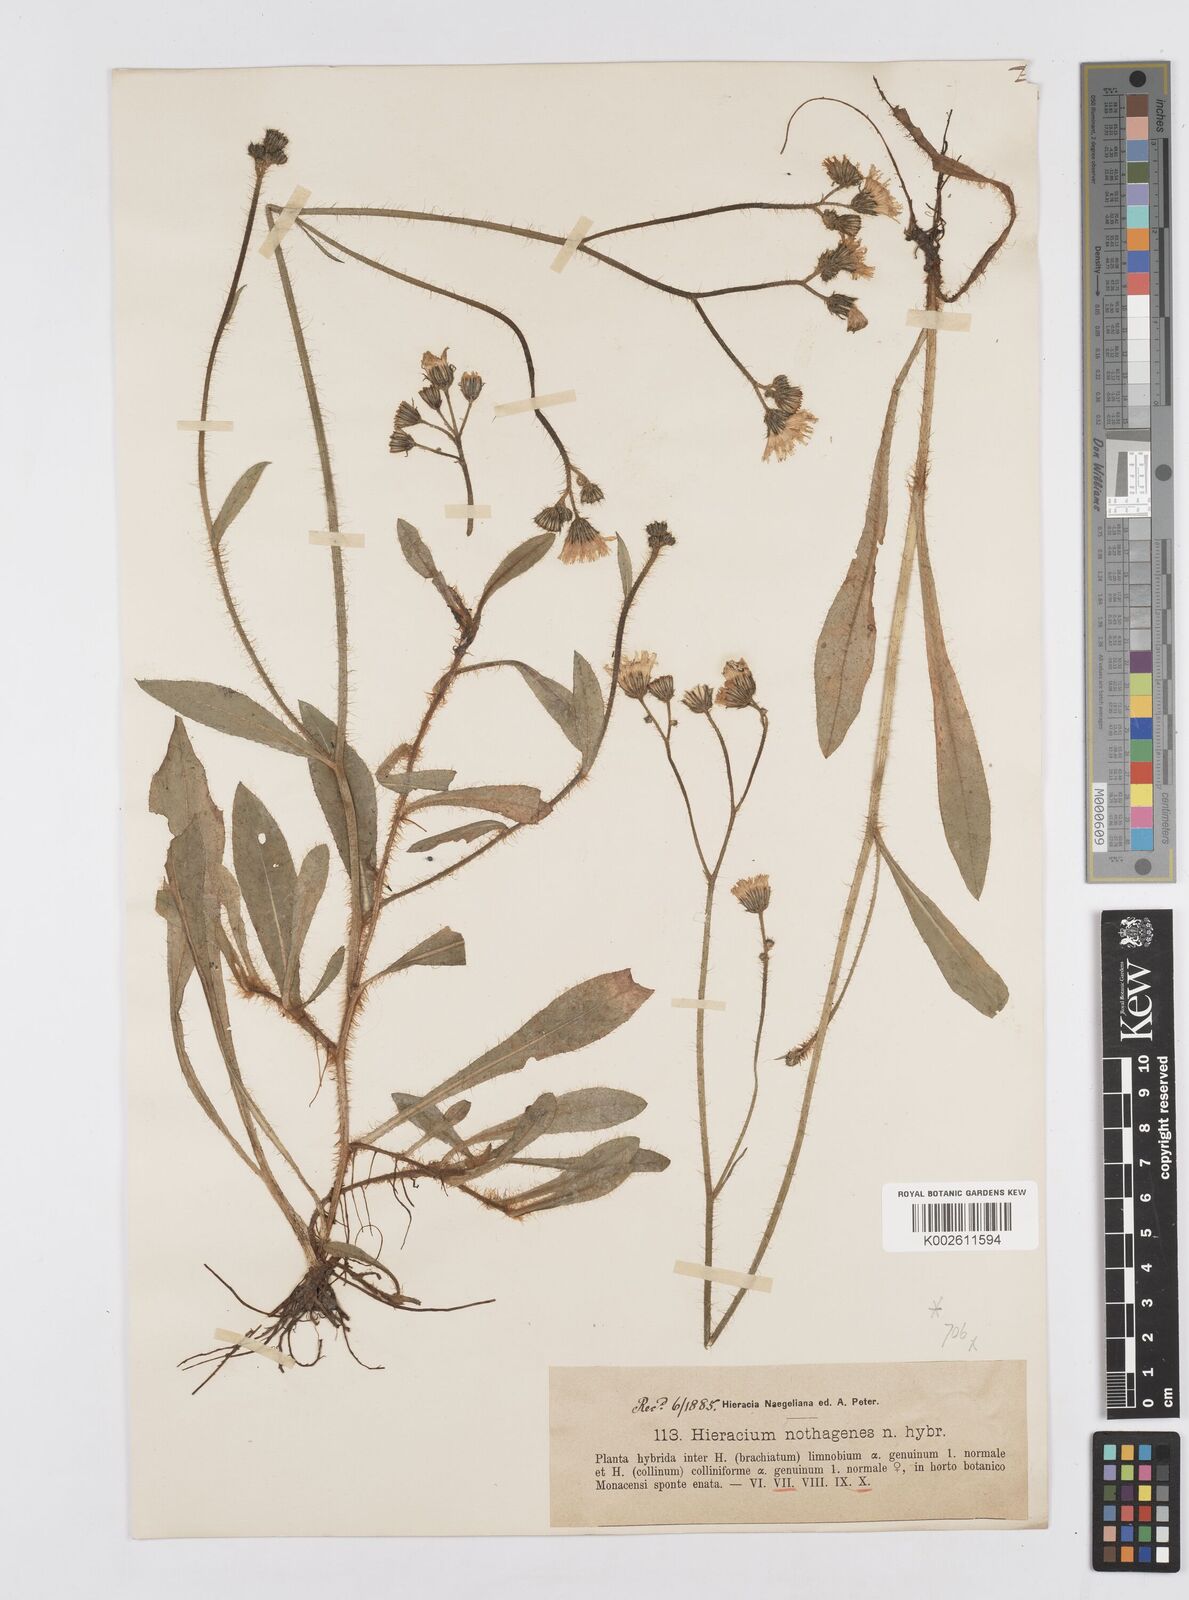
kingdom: Plantae
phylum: Tracheophyta
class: Magnoliopsida
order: Asterales
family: Asteraceae
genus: Pilosella
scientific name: Pilosella acutifolia
